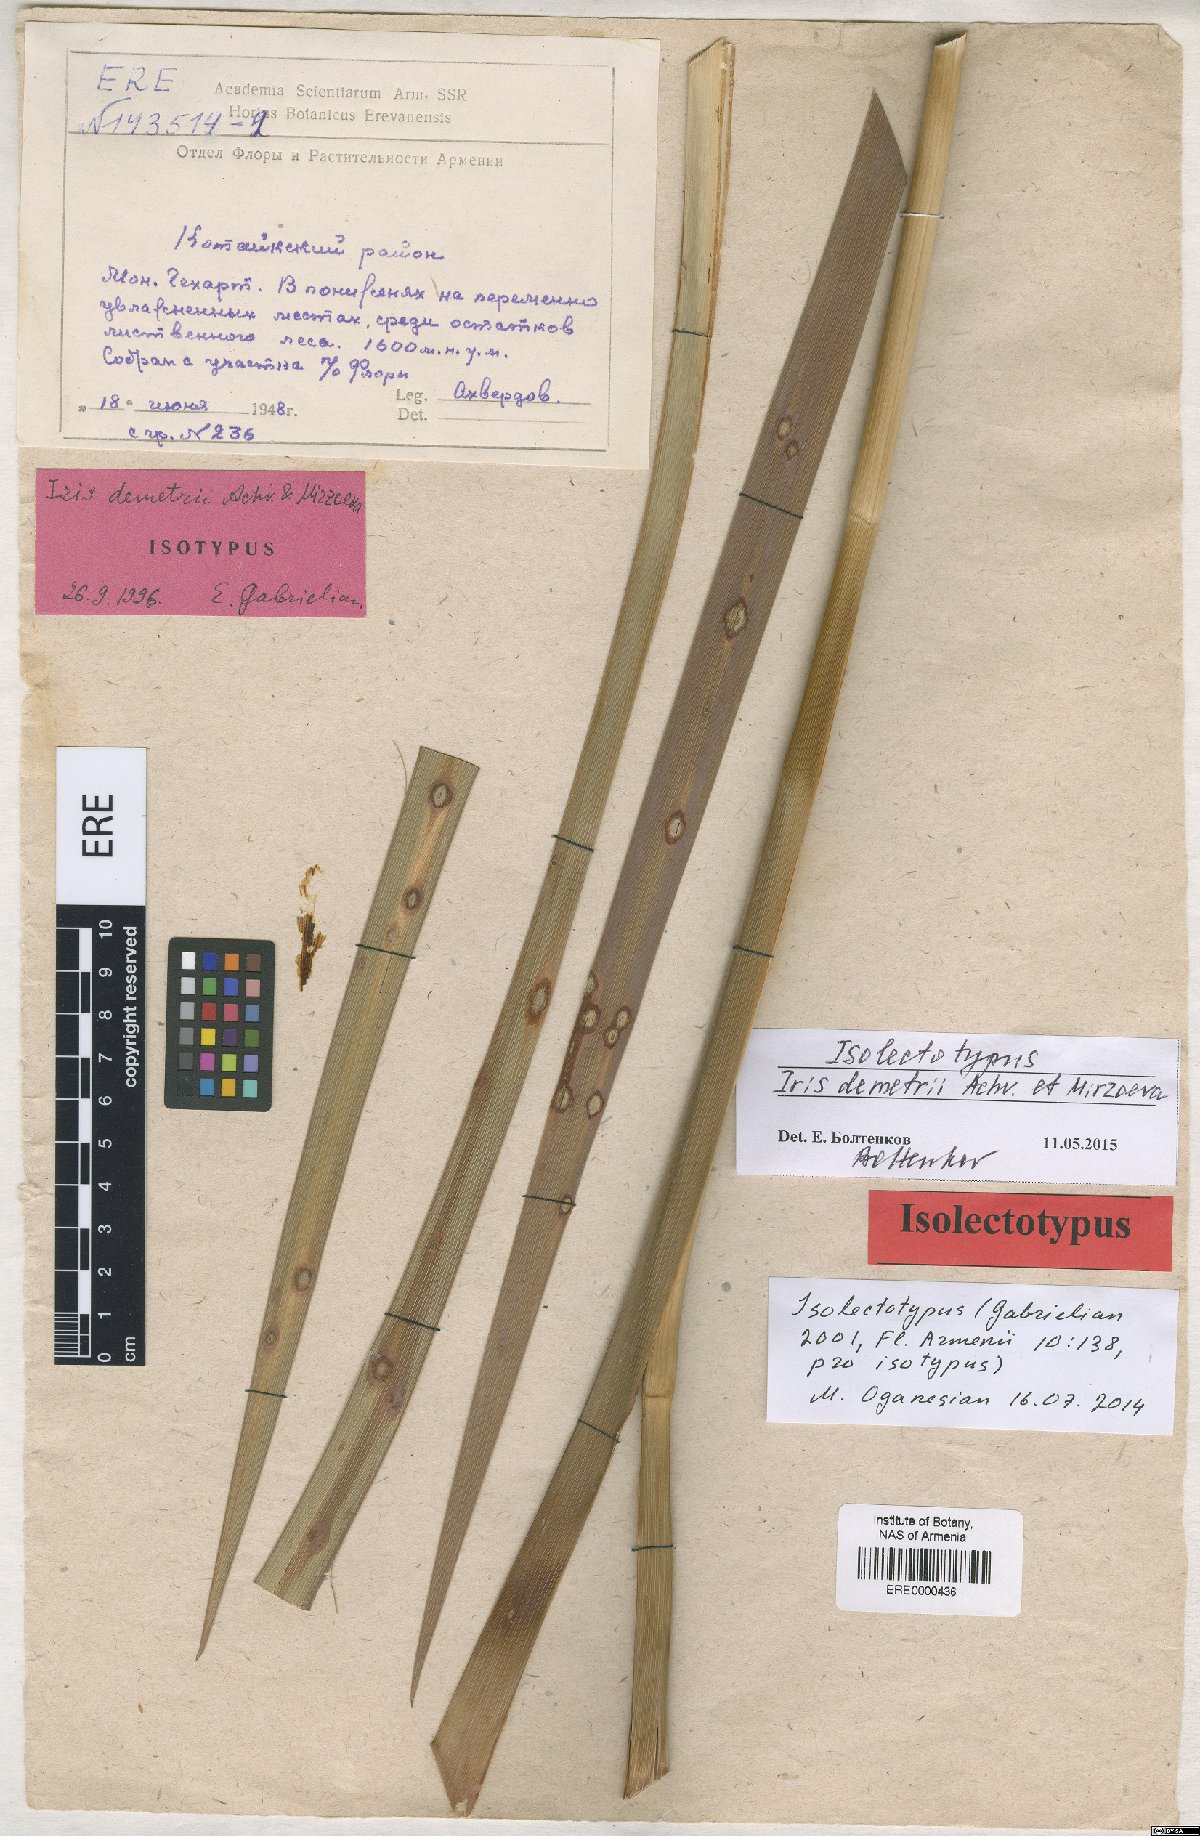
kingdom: Plantae
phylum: Tracheophyta
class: Liliopsida
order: Asparagales
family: Iridaceae
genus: Iris
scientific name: Iris spuria
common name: Blue iris
